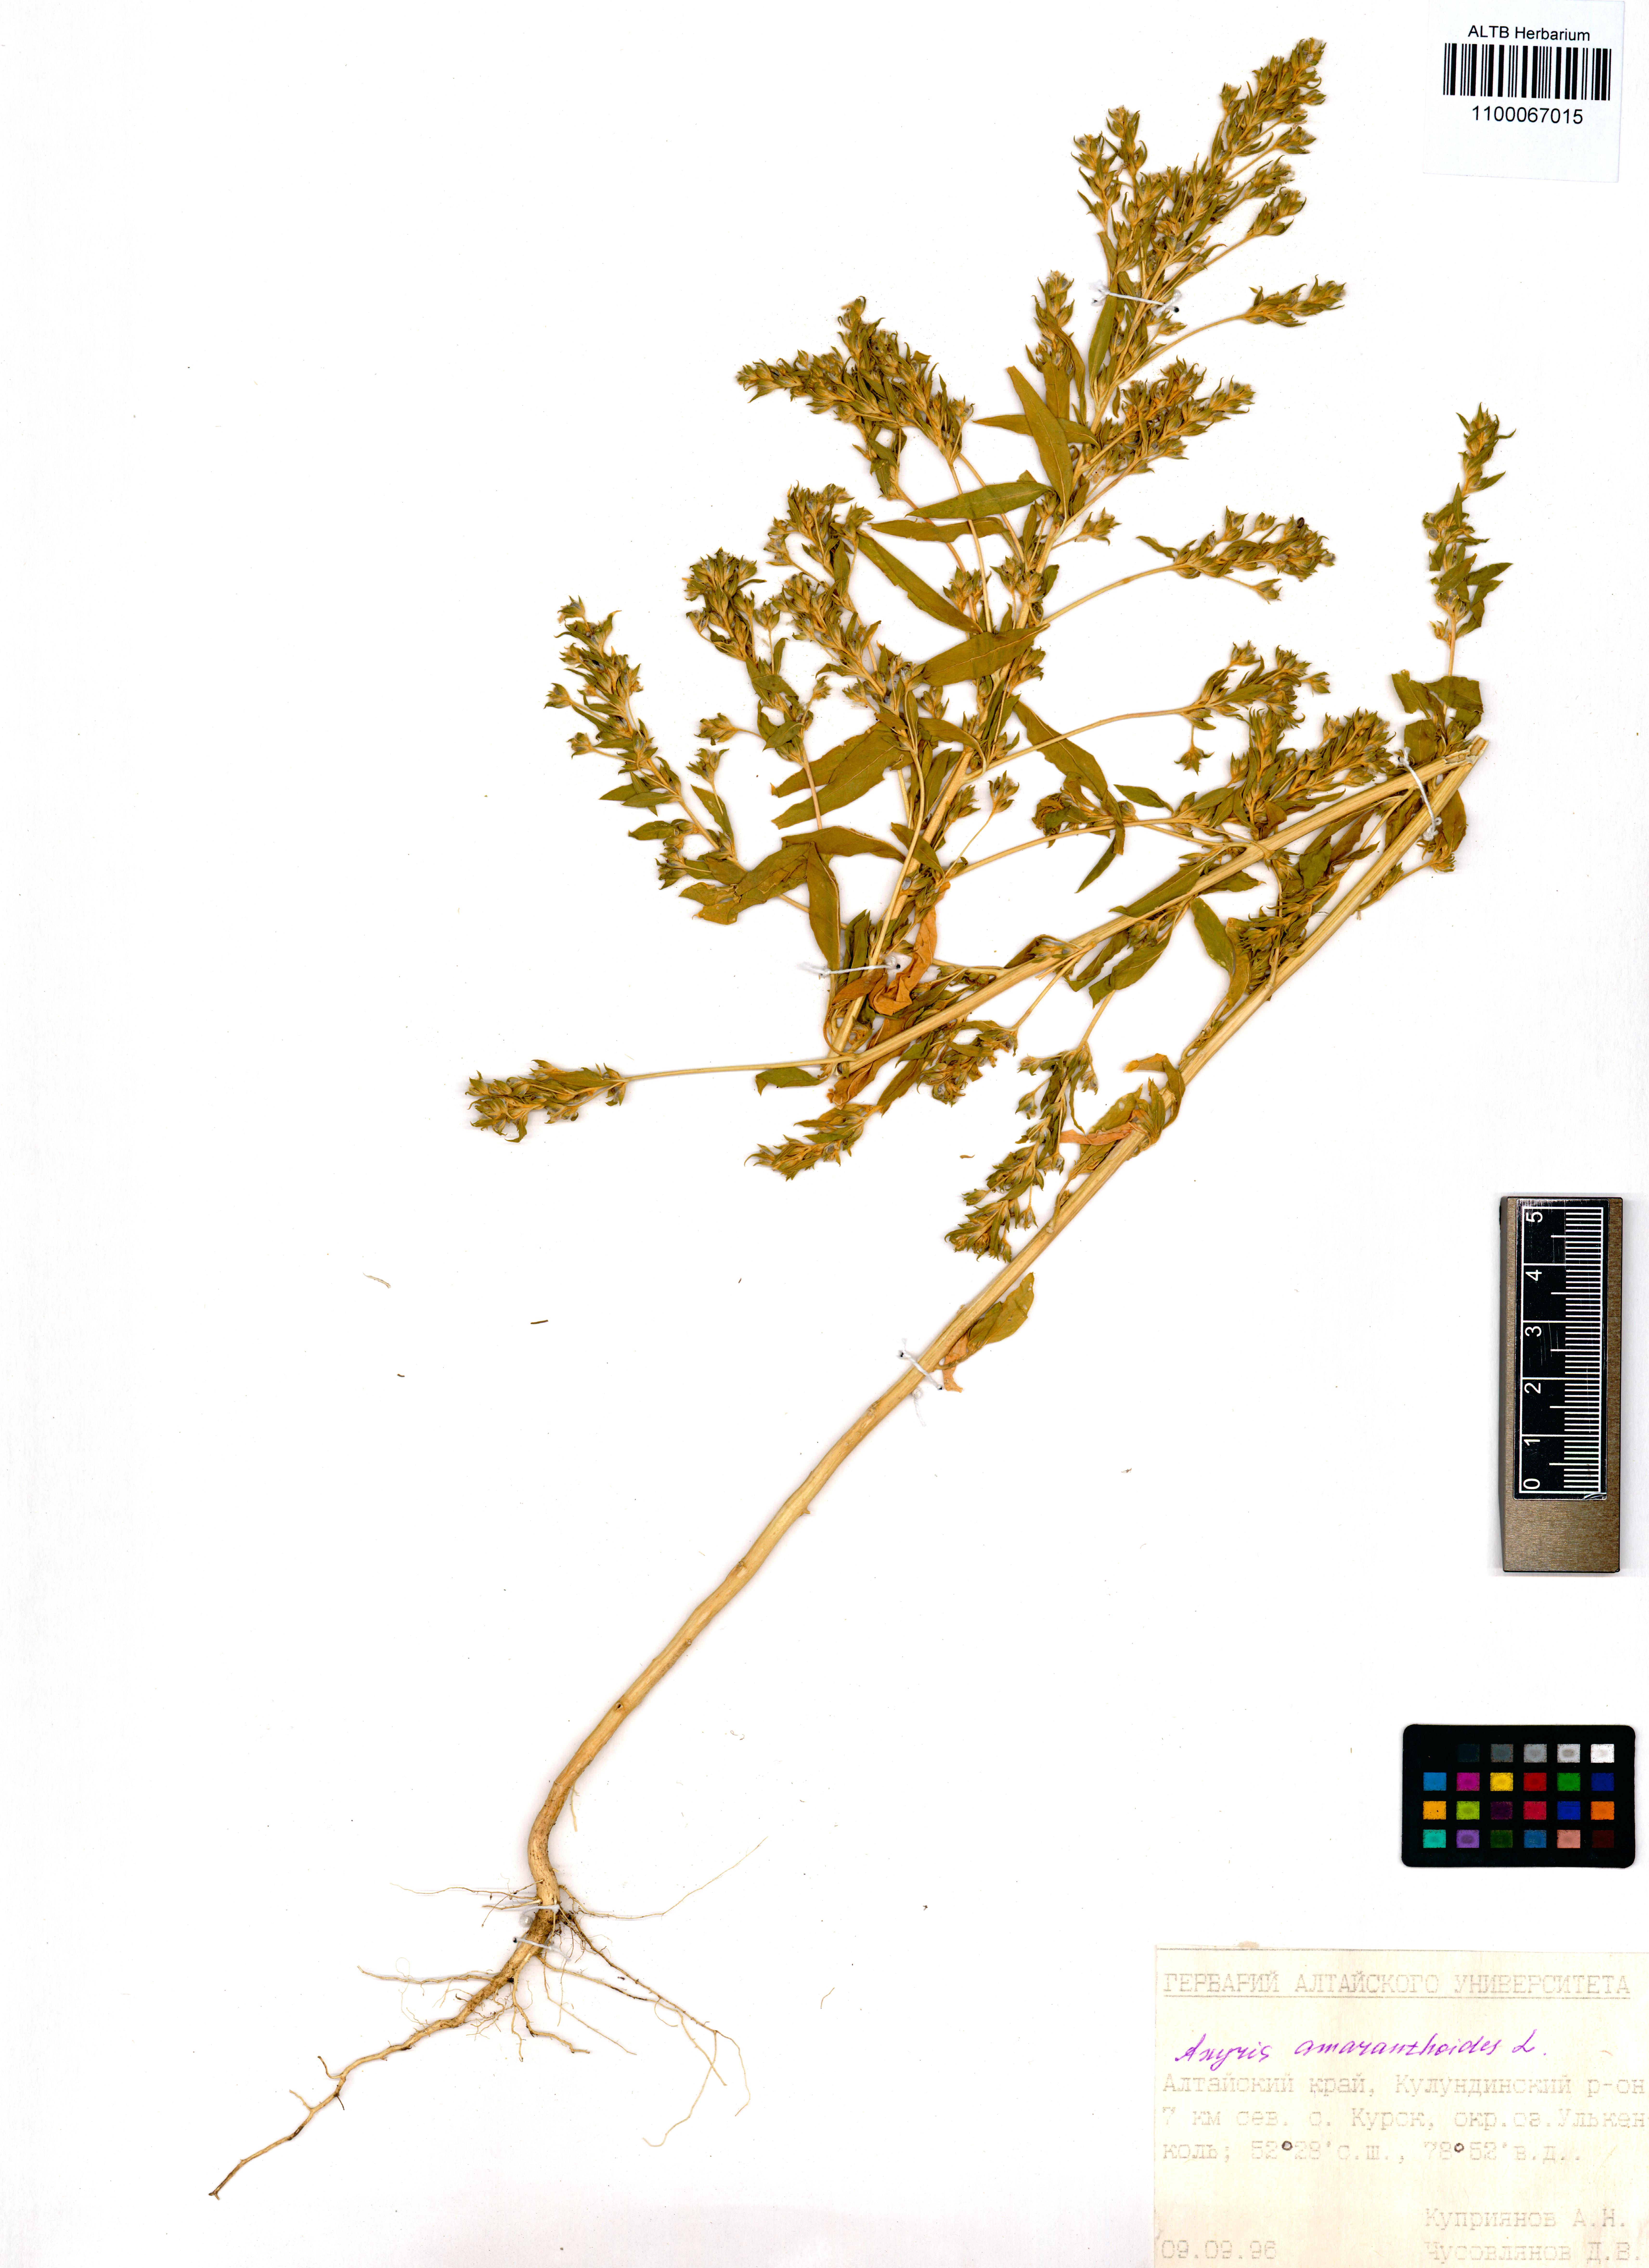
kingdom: Plantae
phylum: Tracheophyta
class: Magnoliopsida
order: Caryophyllales
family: Amaranthaceae
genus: Axyris
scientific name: Axyris amaranthoides
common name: Russian pigweed
